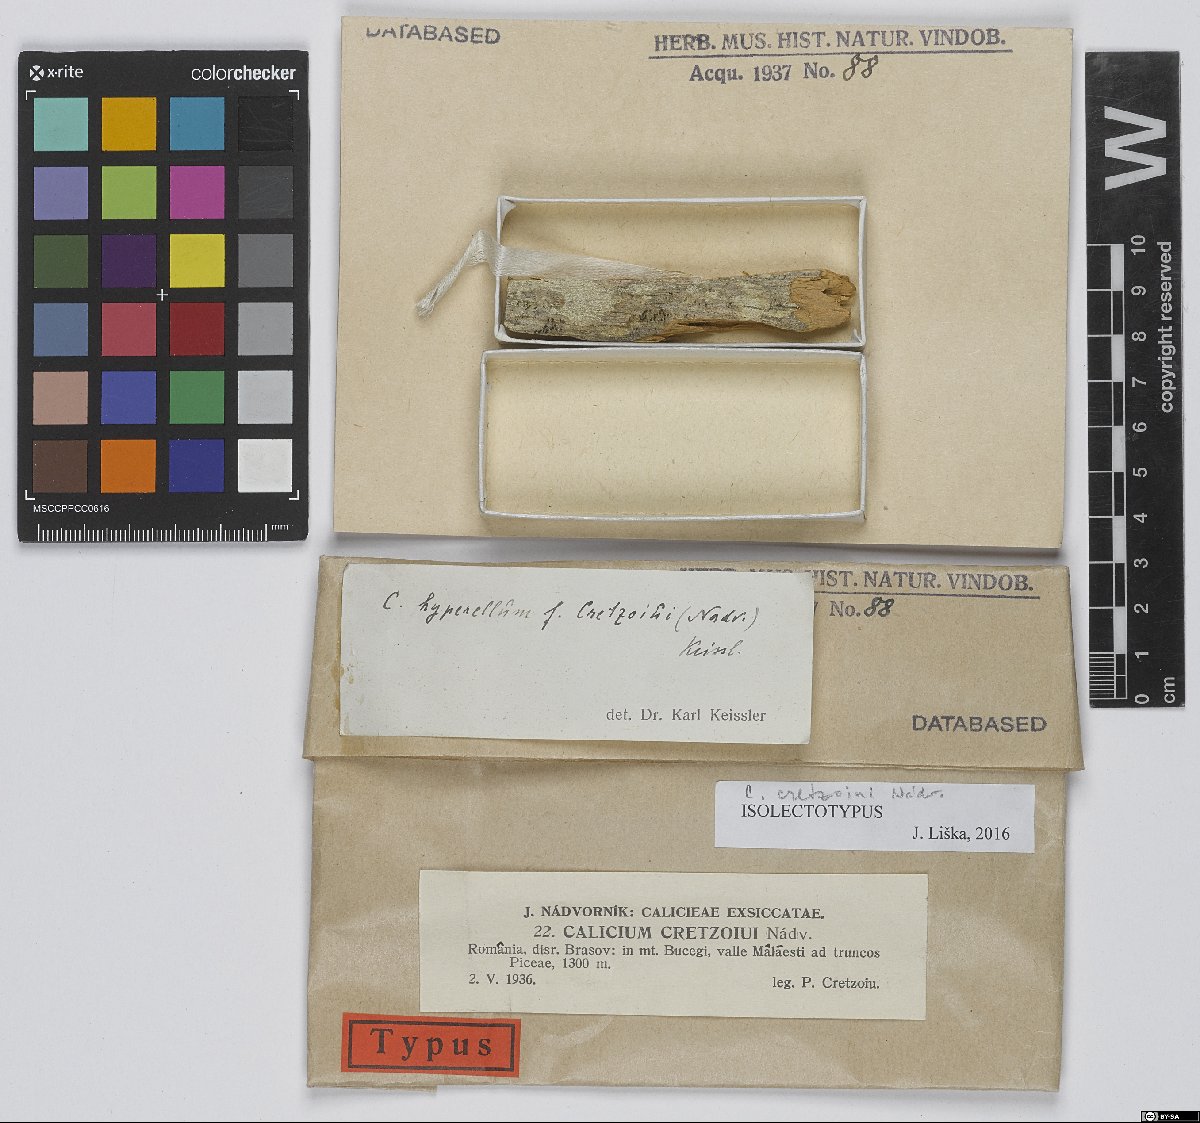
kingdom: Fungi
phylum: Ascomycota
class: Lecanoromycetes
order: Caliciales
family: Caliciaceae
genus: Calicium
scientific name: Calicium cretzoiui
